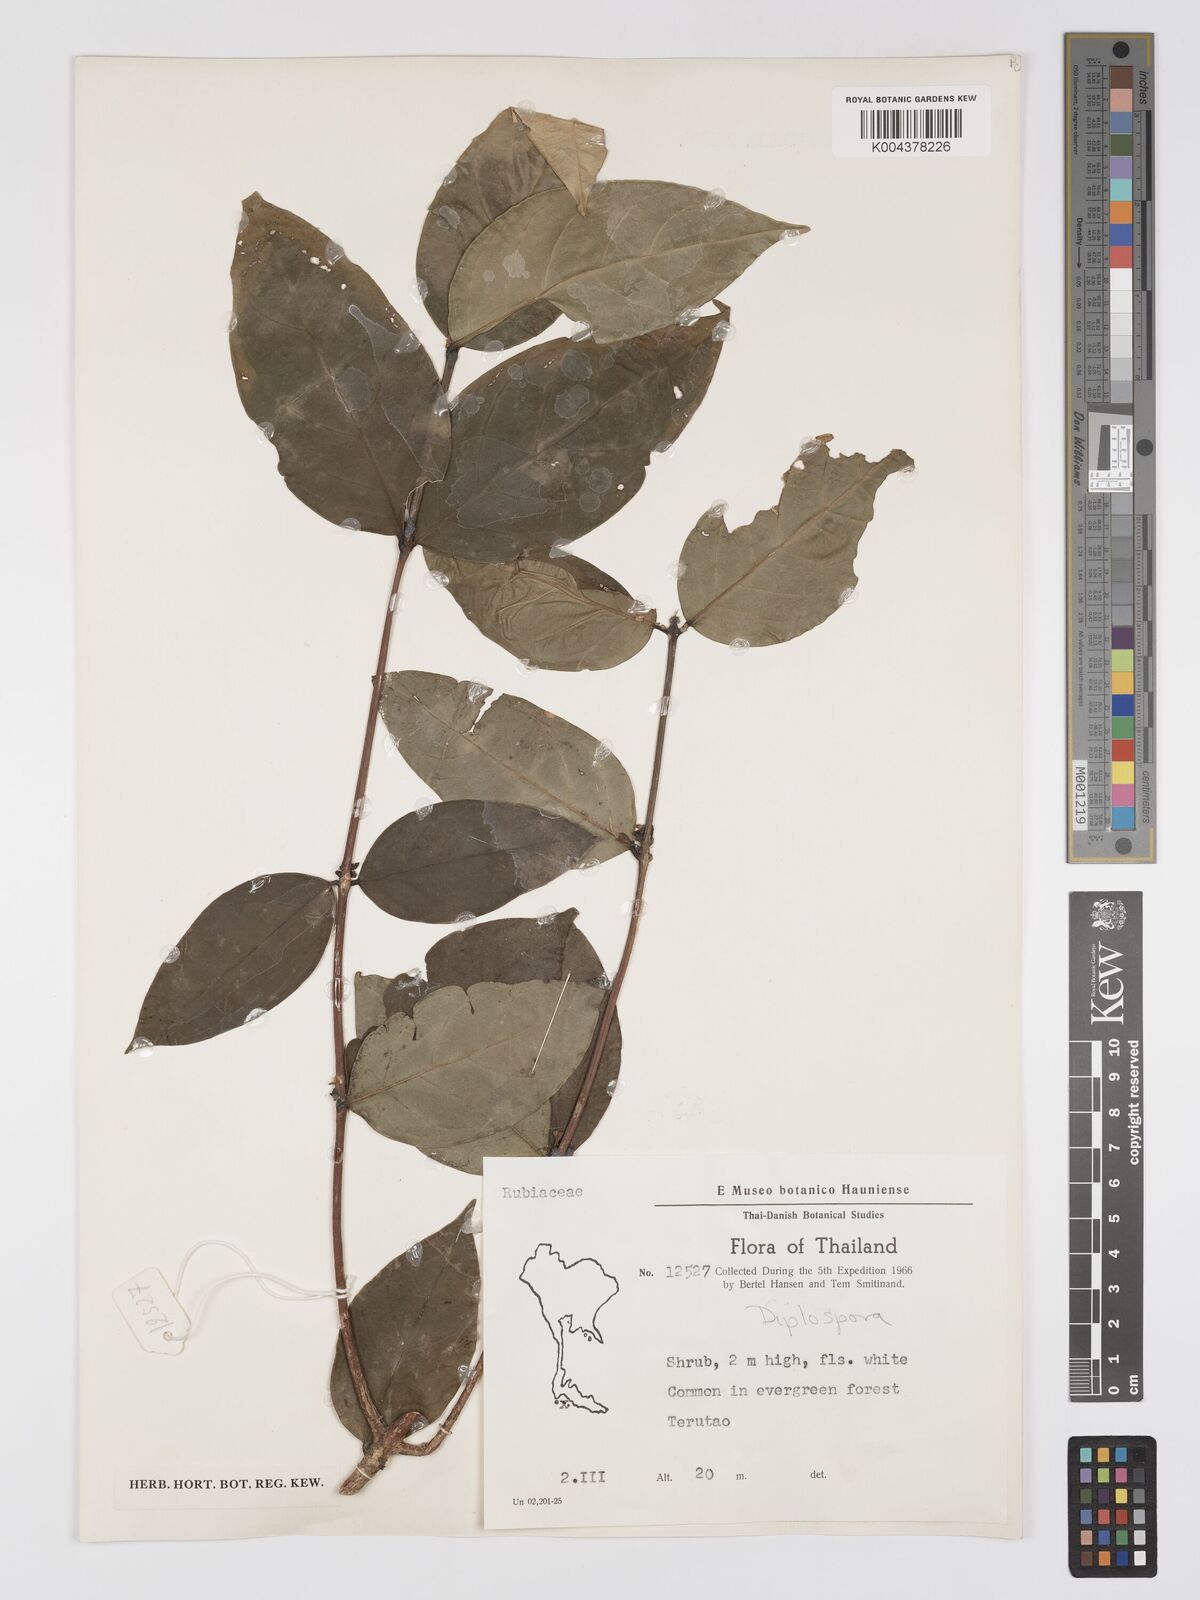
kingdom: Plantae
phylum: Tracheophyta
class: Magnoliopsida
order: Gentianales
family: Rubiaceae
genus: Diplospora
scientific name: Diplospora
